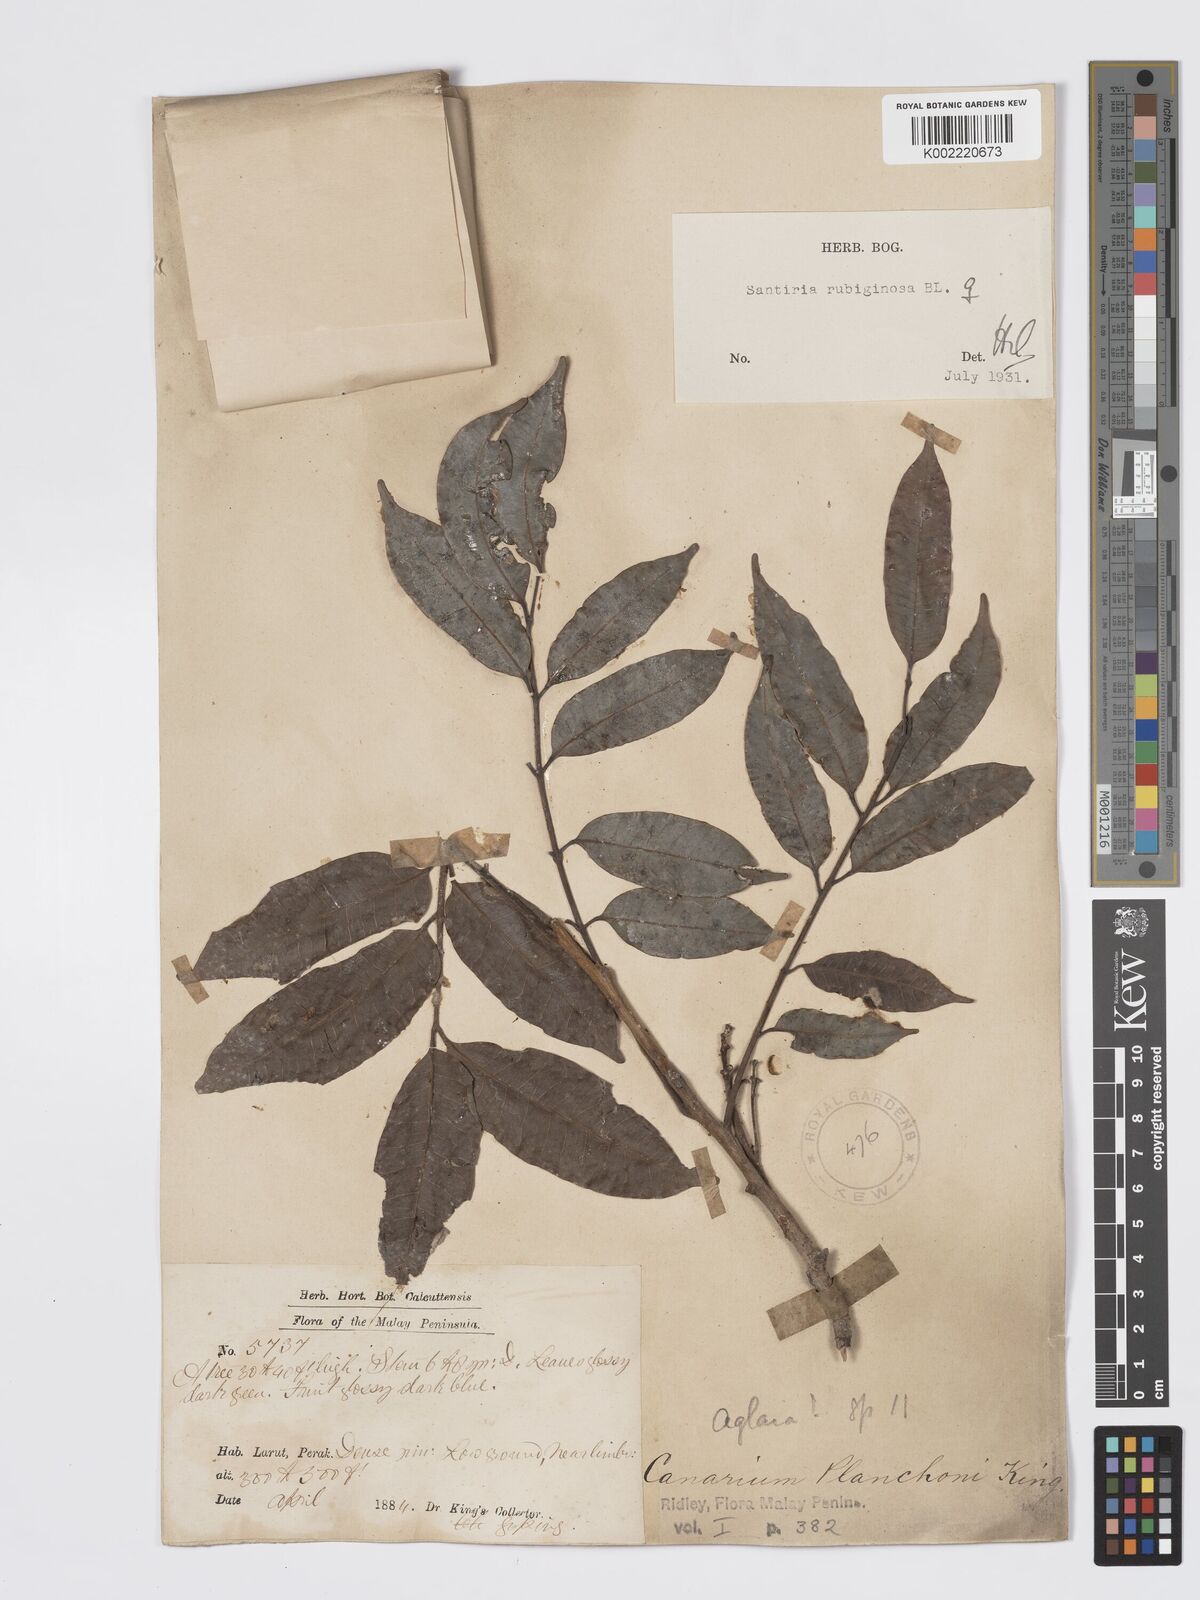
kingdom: Plantae
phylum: Tracheophyta
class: Magnoliopsida
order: Sapindales
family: Burseraceae
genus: Santiria
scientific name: Santiria rubiginosa
